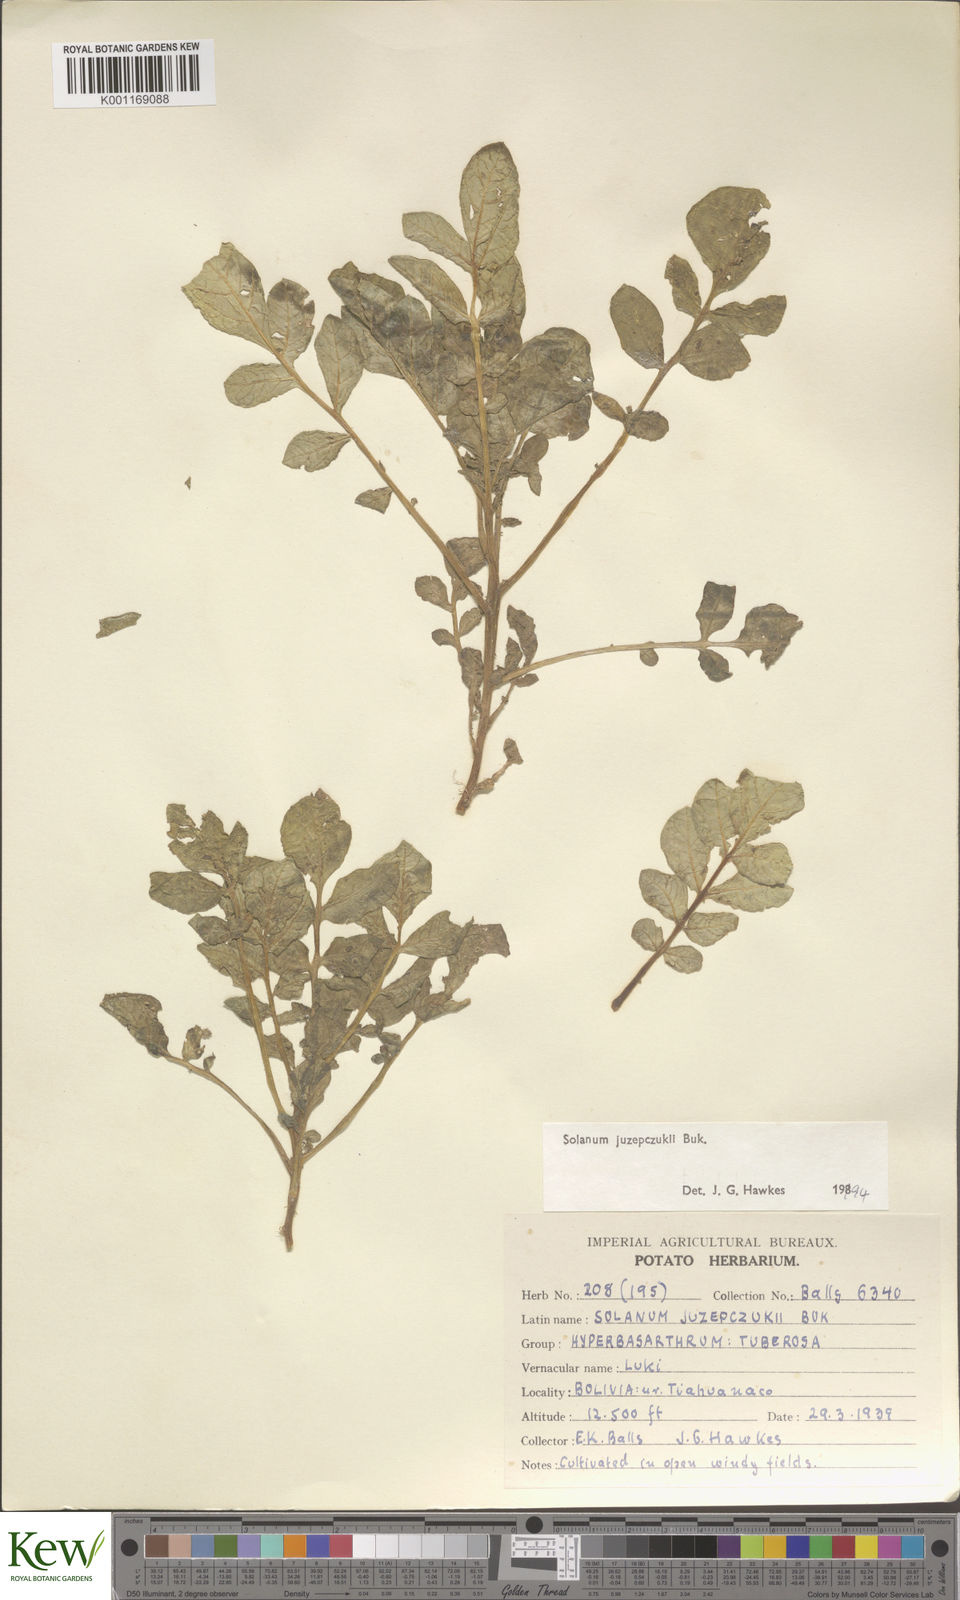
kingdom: Plantae
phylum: Tracheophyta
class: Magnoliopsida
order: Solanales
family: Solanaceae
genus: Solanum
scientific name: Solanum juzepczukii
